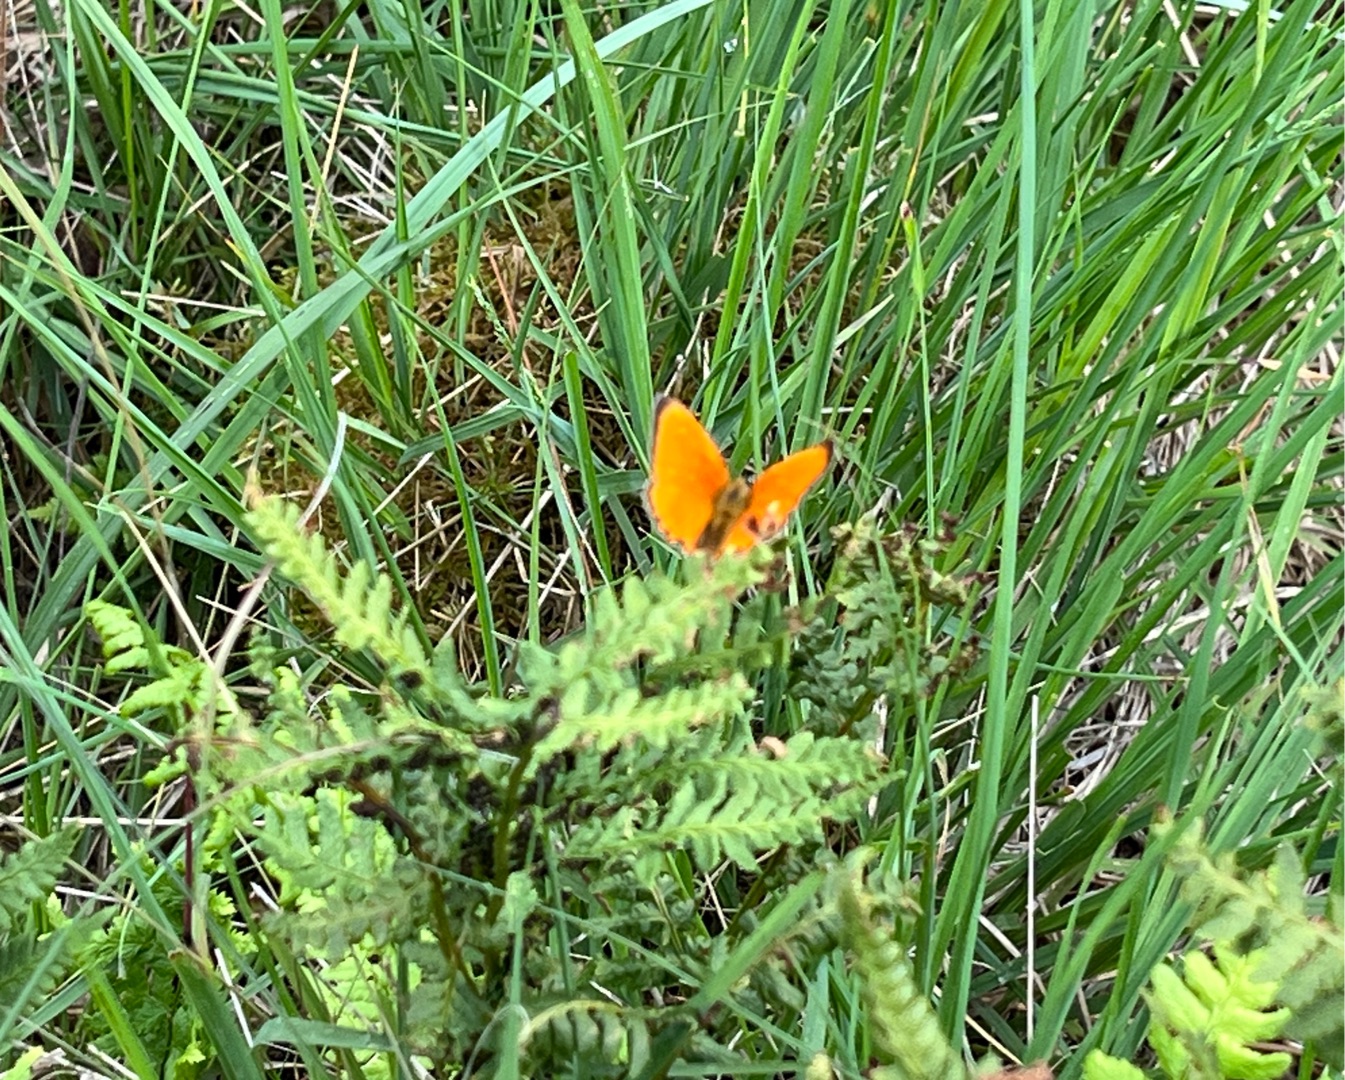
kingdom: Animalia
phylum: Arthropoda
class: Insecta
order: Lepidoptera
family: Lycaenidae
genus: Lycaena
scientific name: Lycaena virgaureae
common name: Dukatsommerfugl
